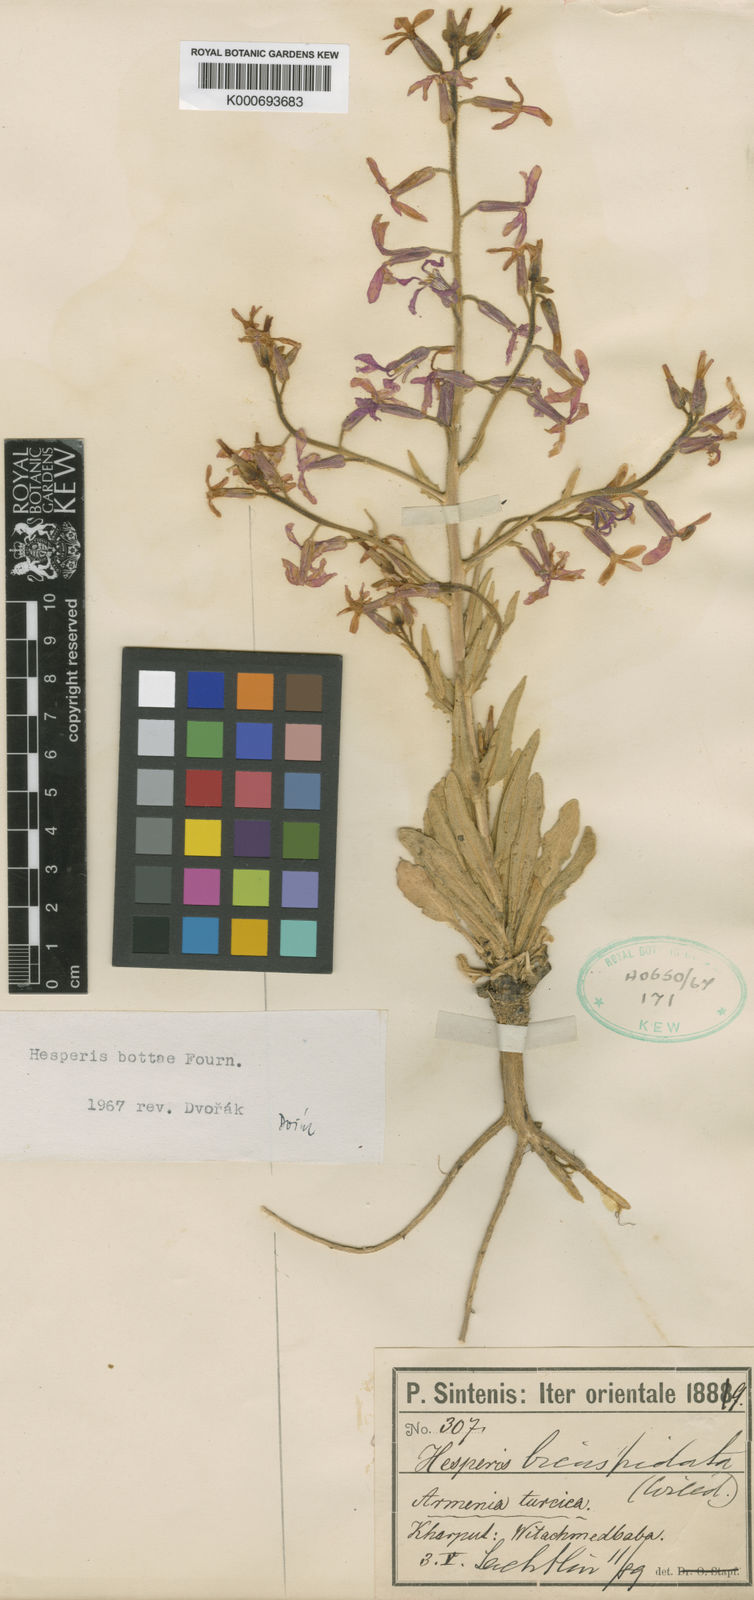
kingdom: Plantae
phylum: Tracheophyta
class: Magnoliopsida
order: Brassicales
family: Brassicaceae
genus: Hesperis
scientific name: Hesperis
